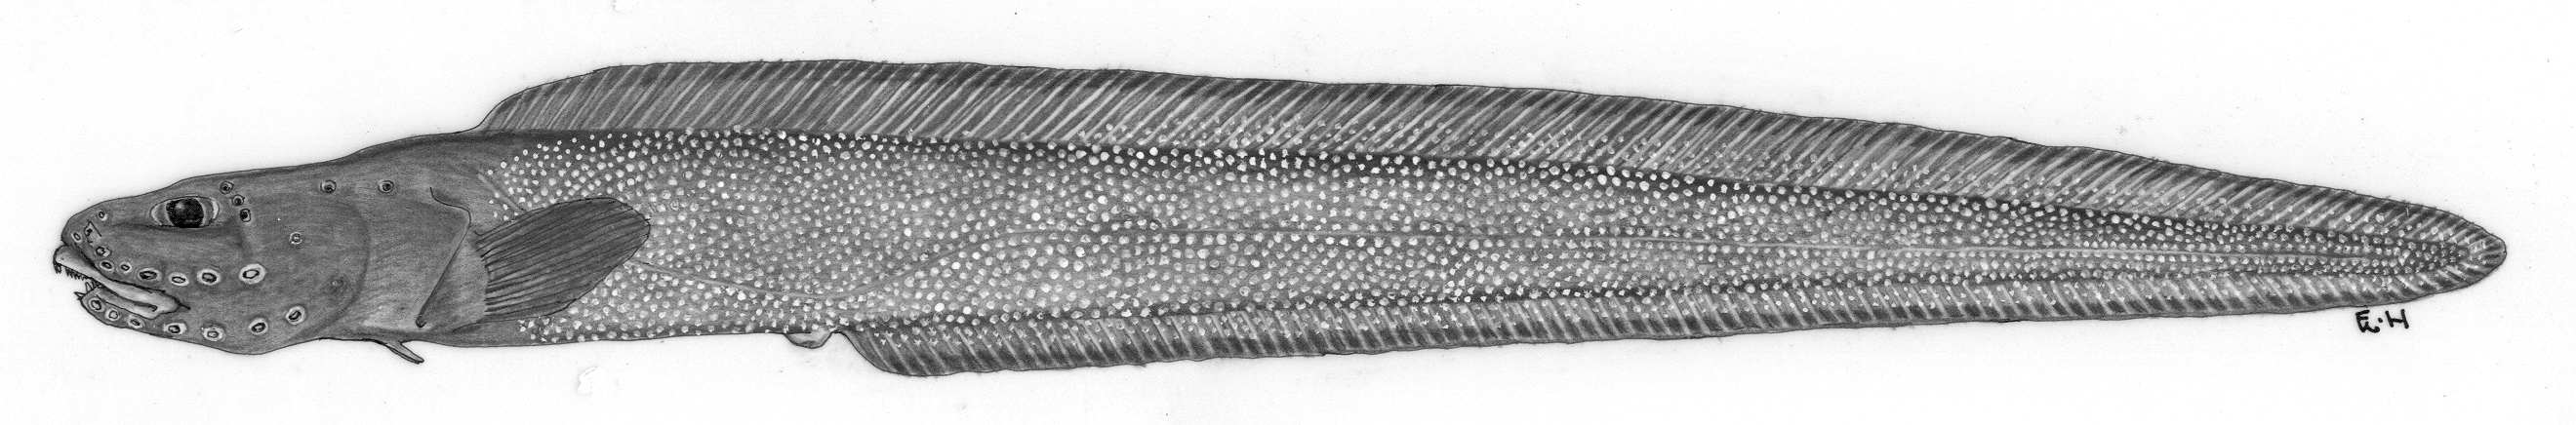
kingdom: Animalia
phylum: Chordata
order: Perciformes
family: Zoarcidae
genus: Lycenchelys
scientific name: Lycenchelys imamurai
